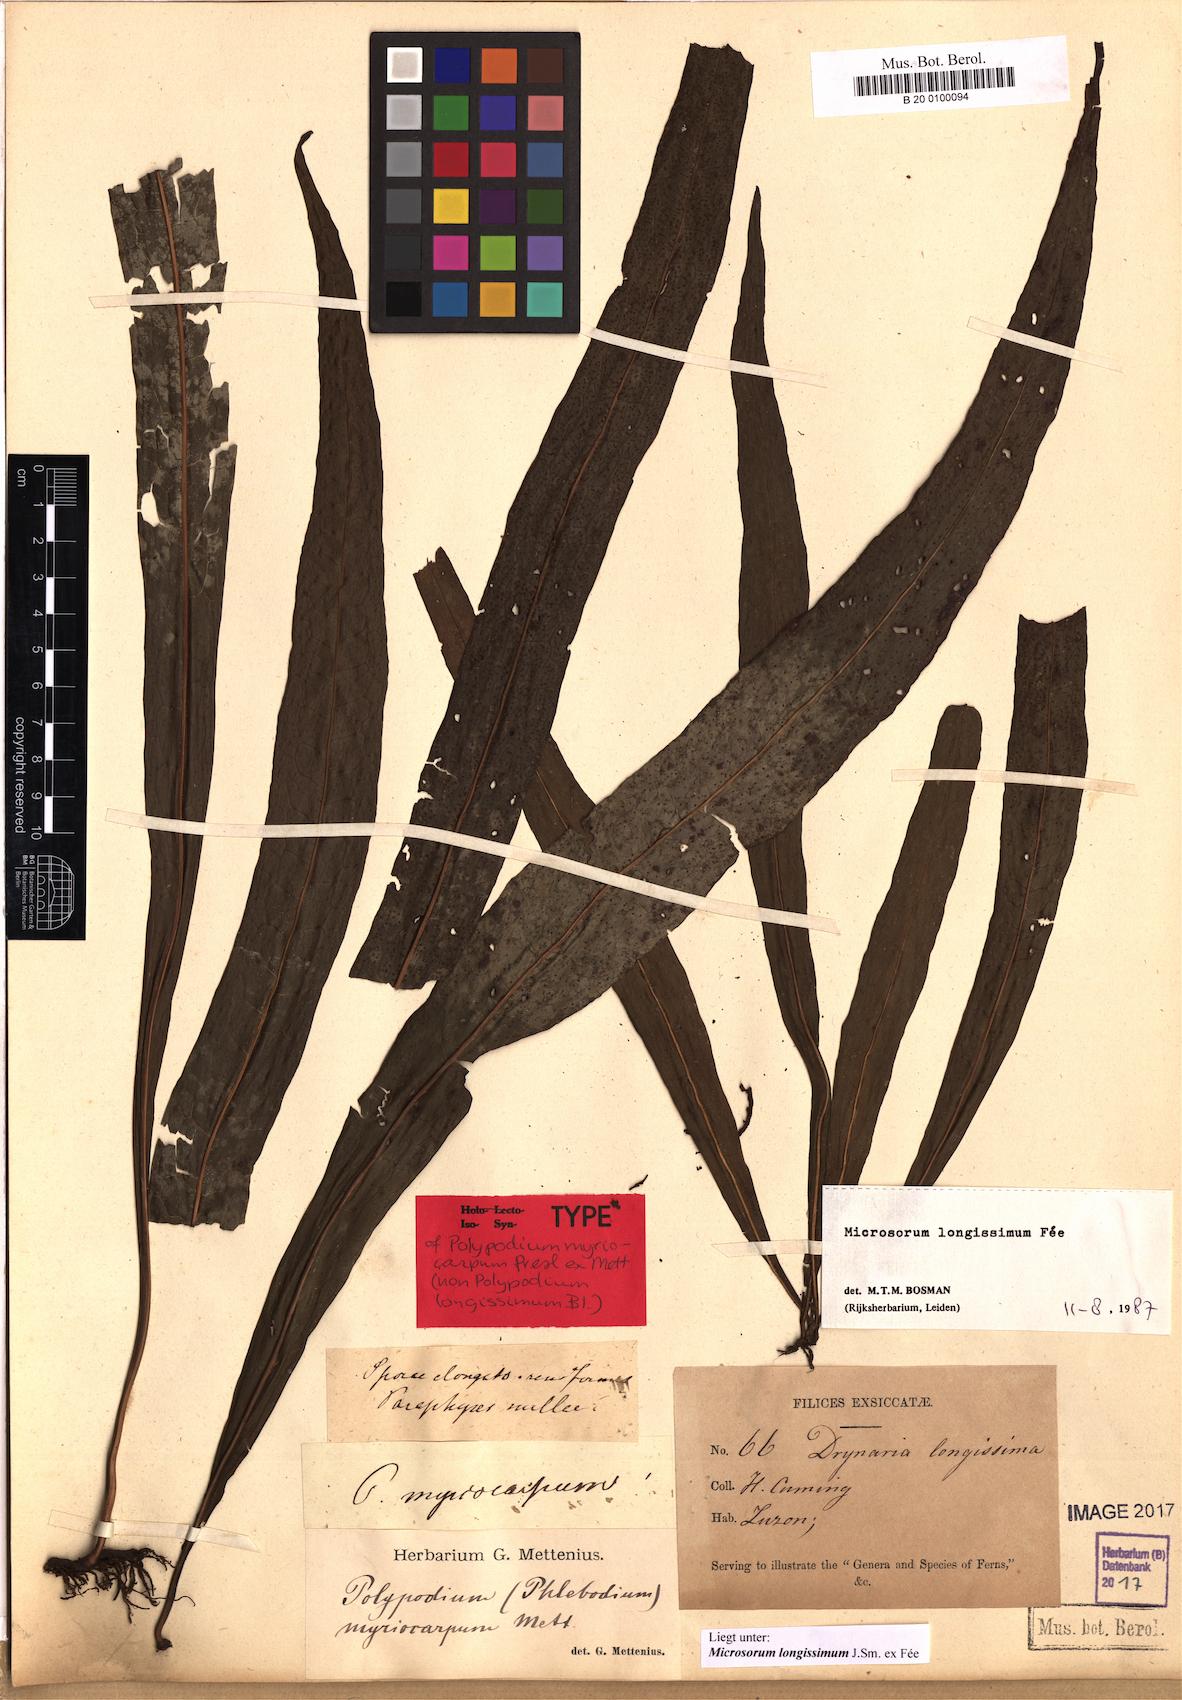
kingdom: Plantae
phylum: Tracheophyta
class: Polypodiopsida
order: Polypodiales
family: Polypodiaceae
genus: Microsorum
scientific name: Microsorum longissimum
